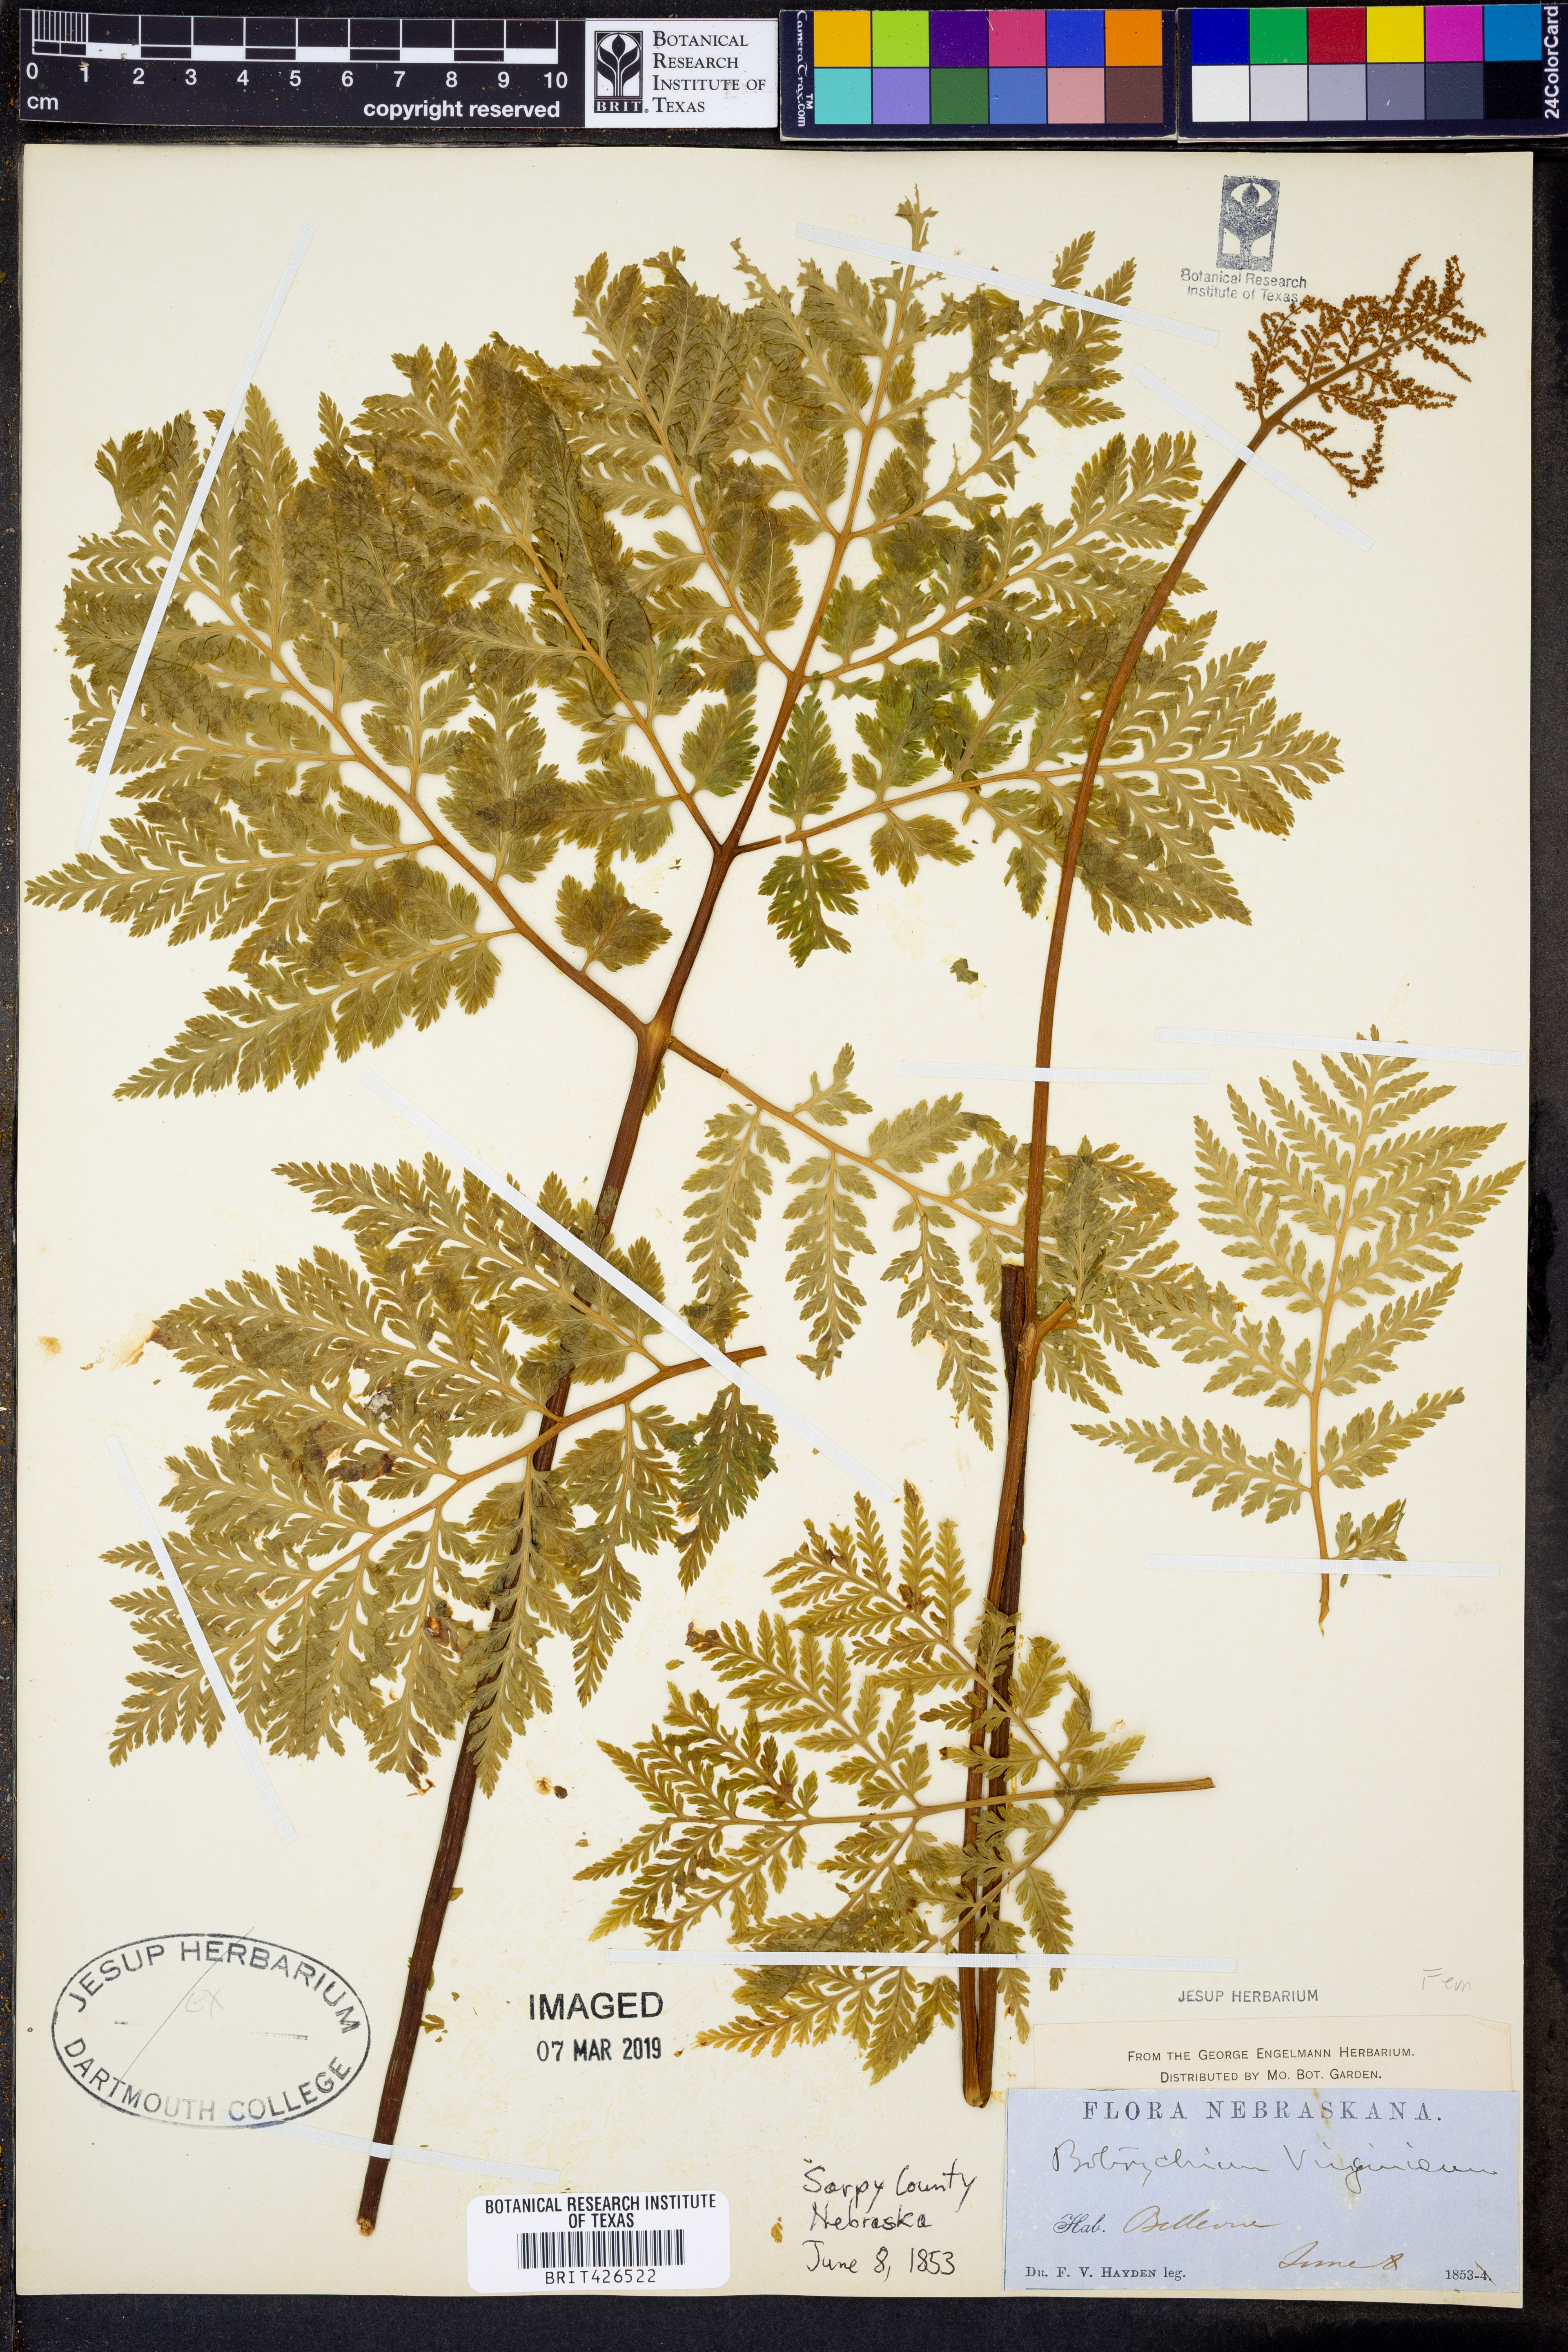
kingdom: Plantae
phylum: Tracheophyta
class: Polypodiopsida
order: Ophioglossales
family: Ophioglossaceae
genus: Botrypus
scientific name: Botrypus virginianus
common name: Common grapefern
